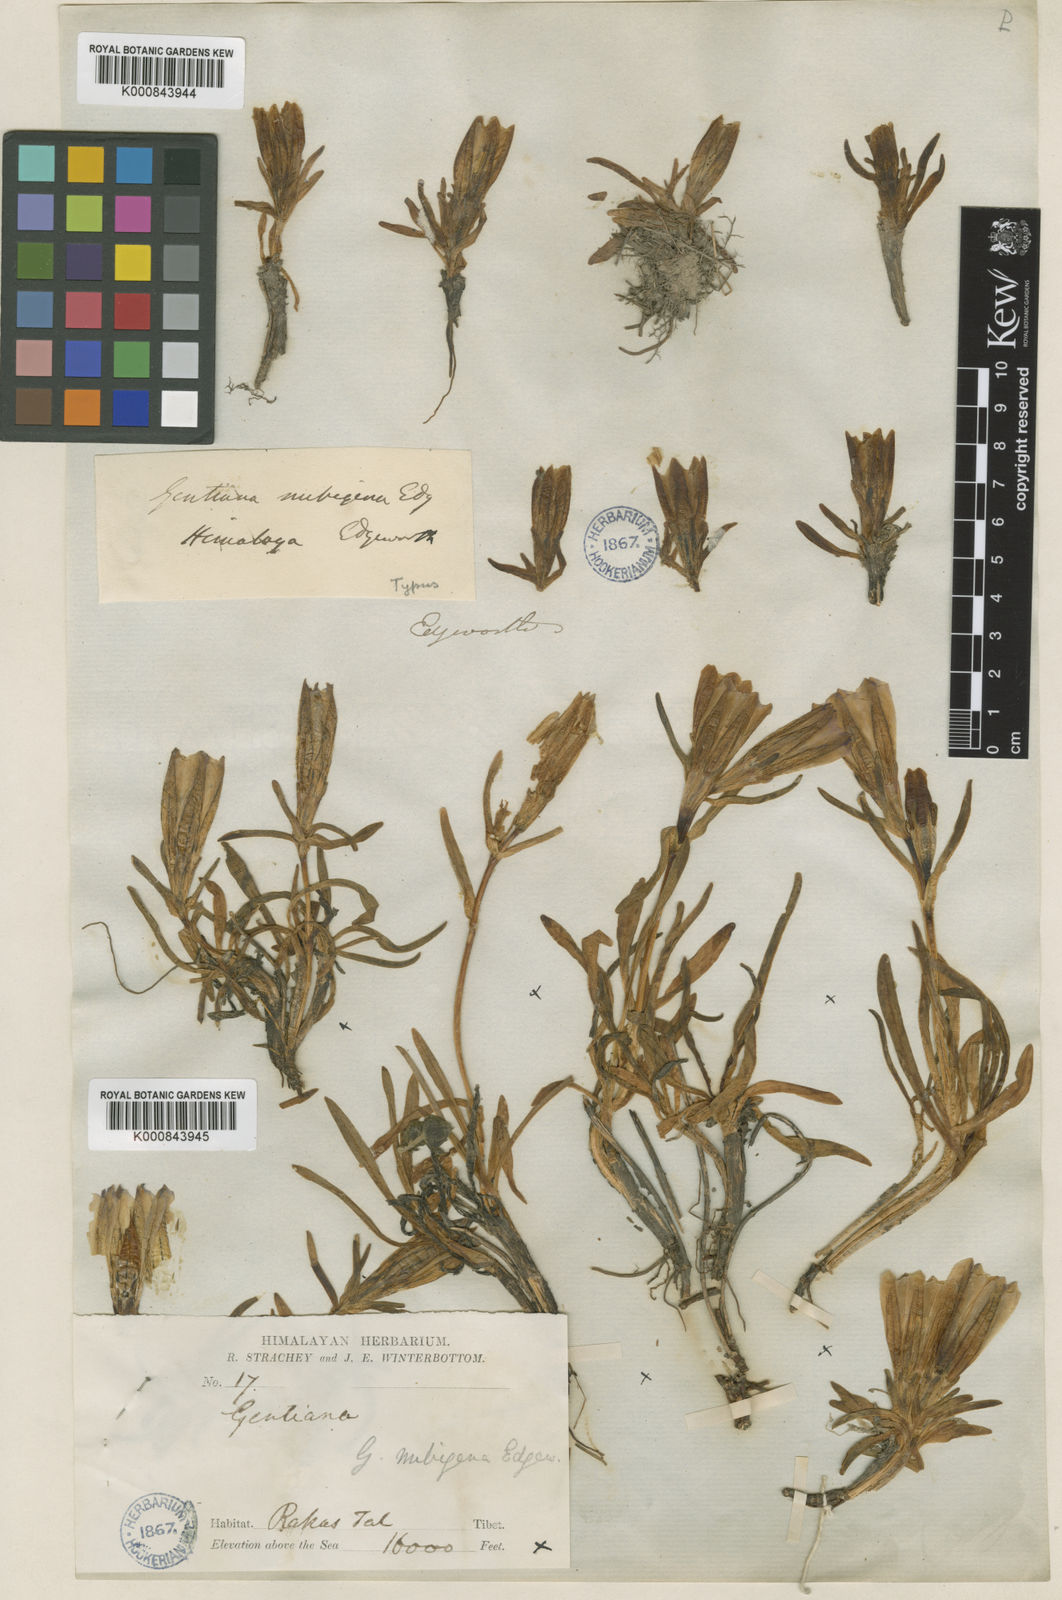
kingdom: Plantae
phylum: Tracheophyta
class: Magnoliopsida
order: Gentianales
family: Gentianaceae
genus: Gentiana
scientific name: Gentiana nubigena
